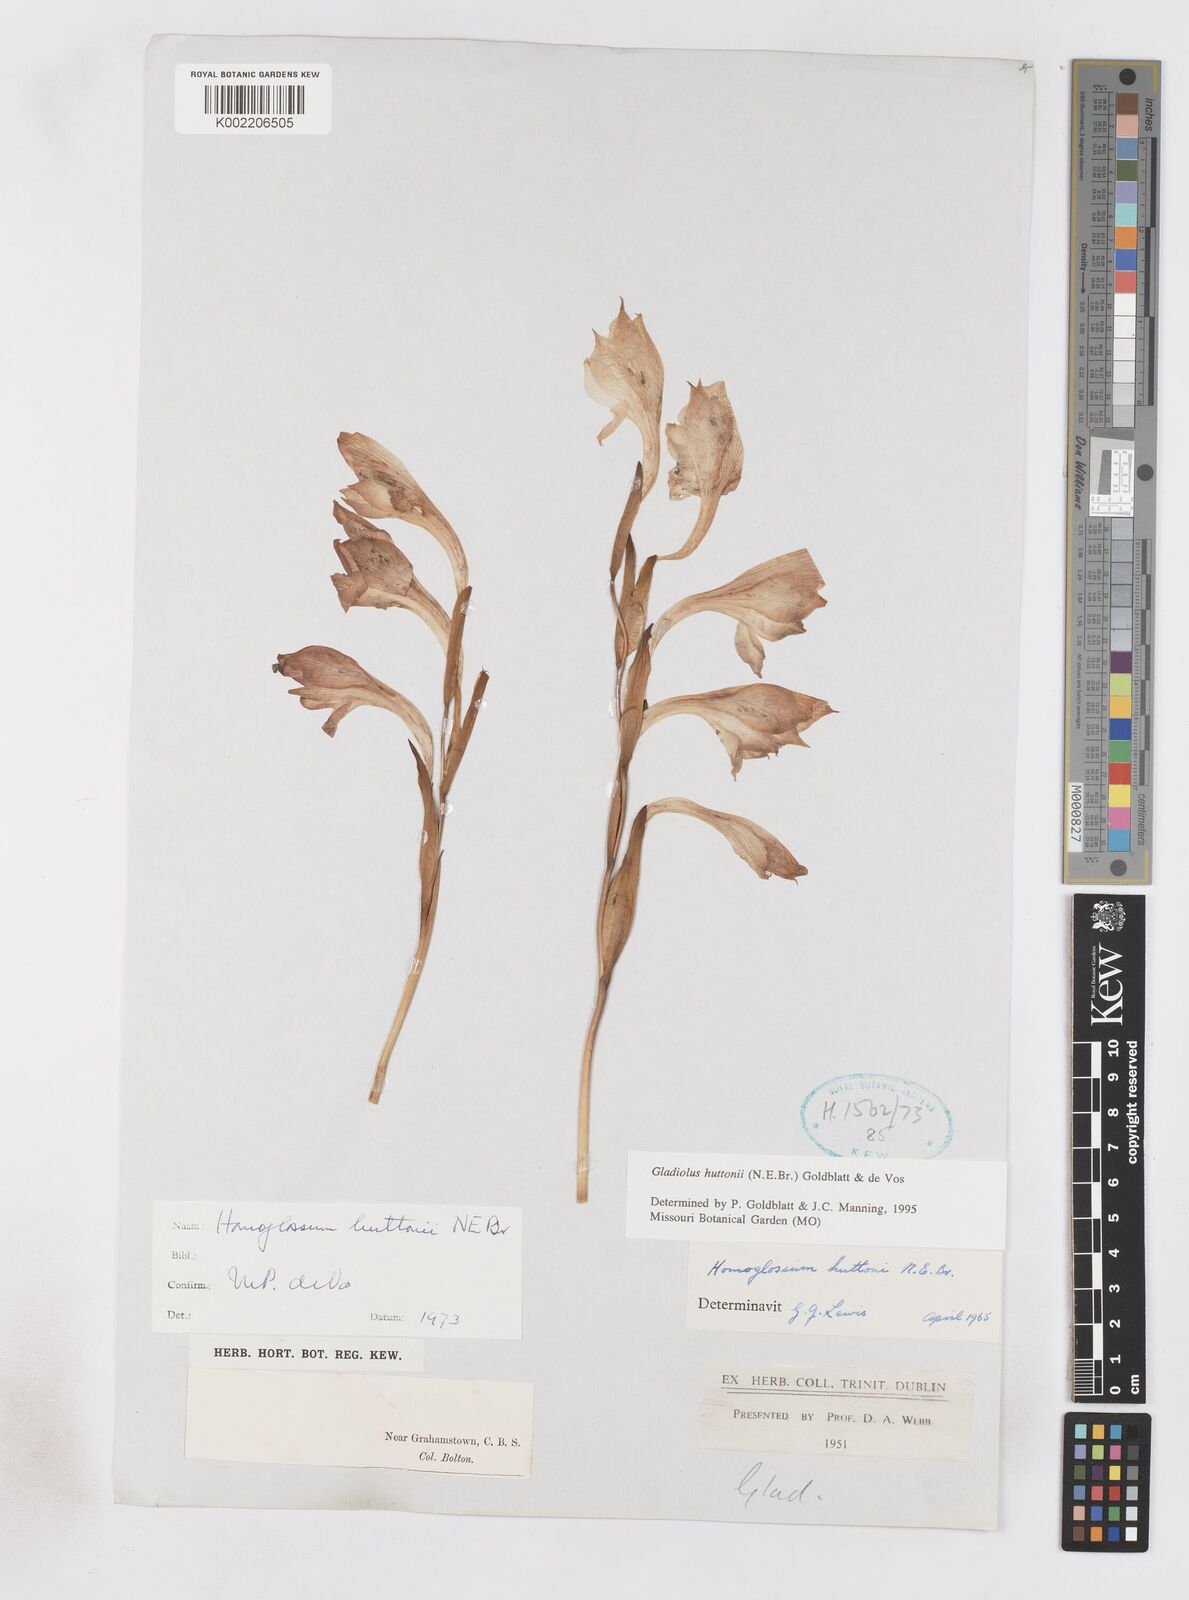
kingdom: Plantae
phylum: Tracheophyta
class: Liliopsida
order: Asparagales
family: Iridaceae
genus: Gladiolus
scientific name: Gladiolus huttonii
